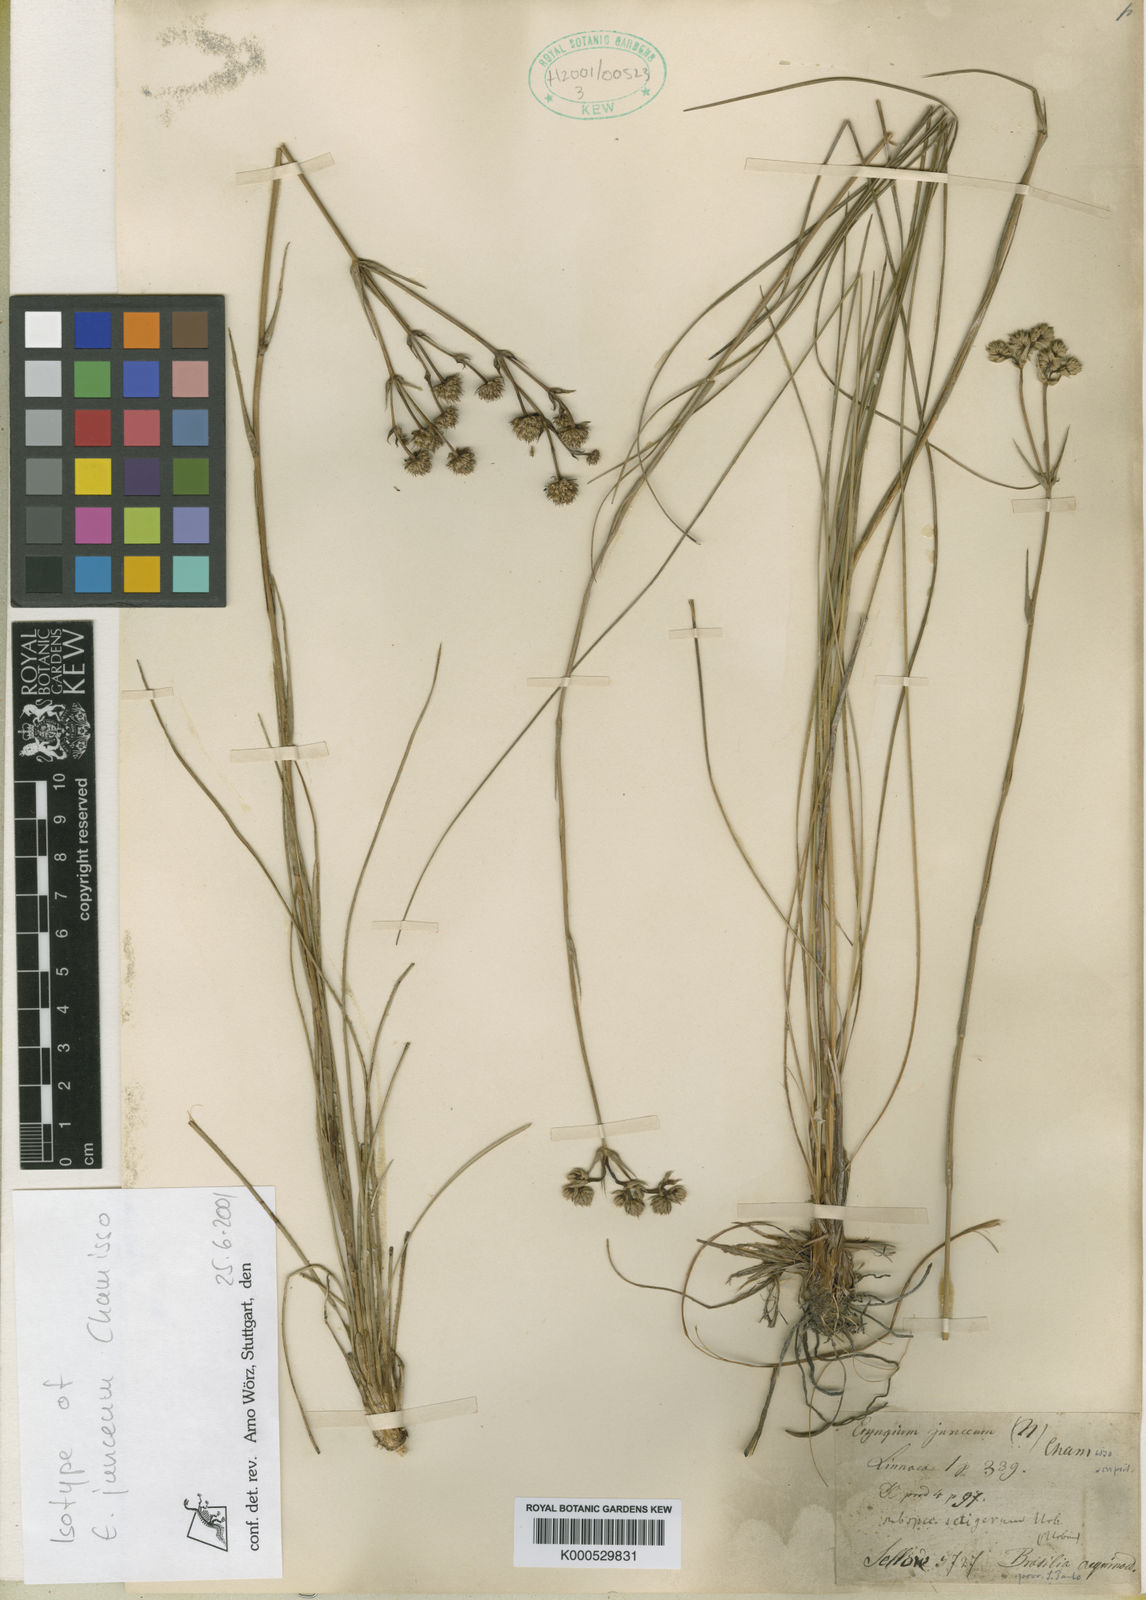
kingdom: Plantae
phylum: Tracheophyta
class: Magnoliopsida
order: Apiales
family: Apiaceae
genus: Eryngium
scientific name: Eryngium junceum
